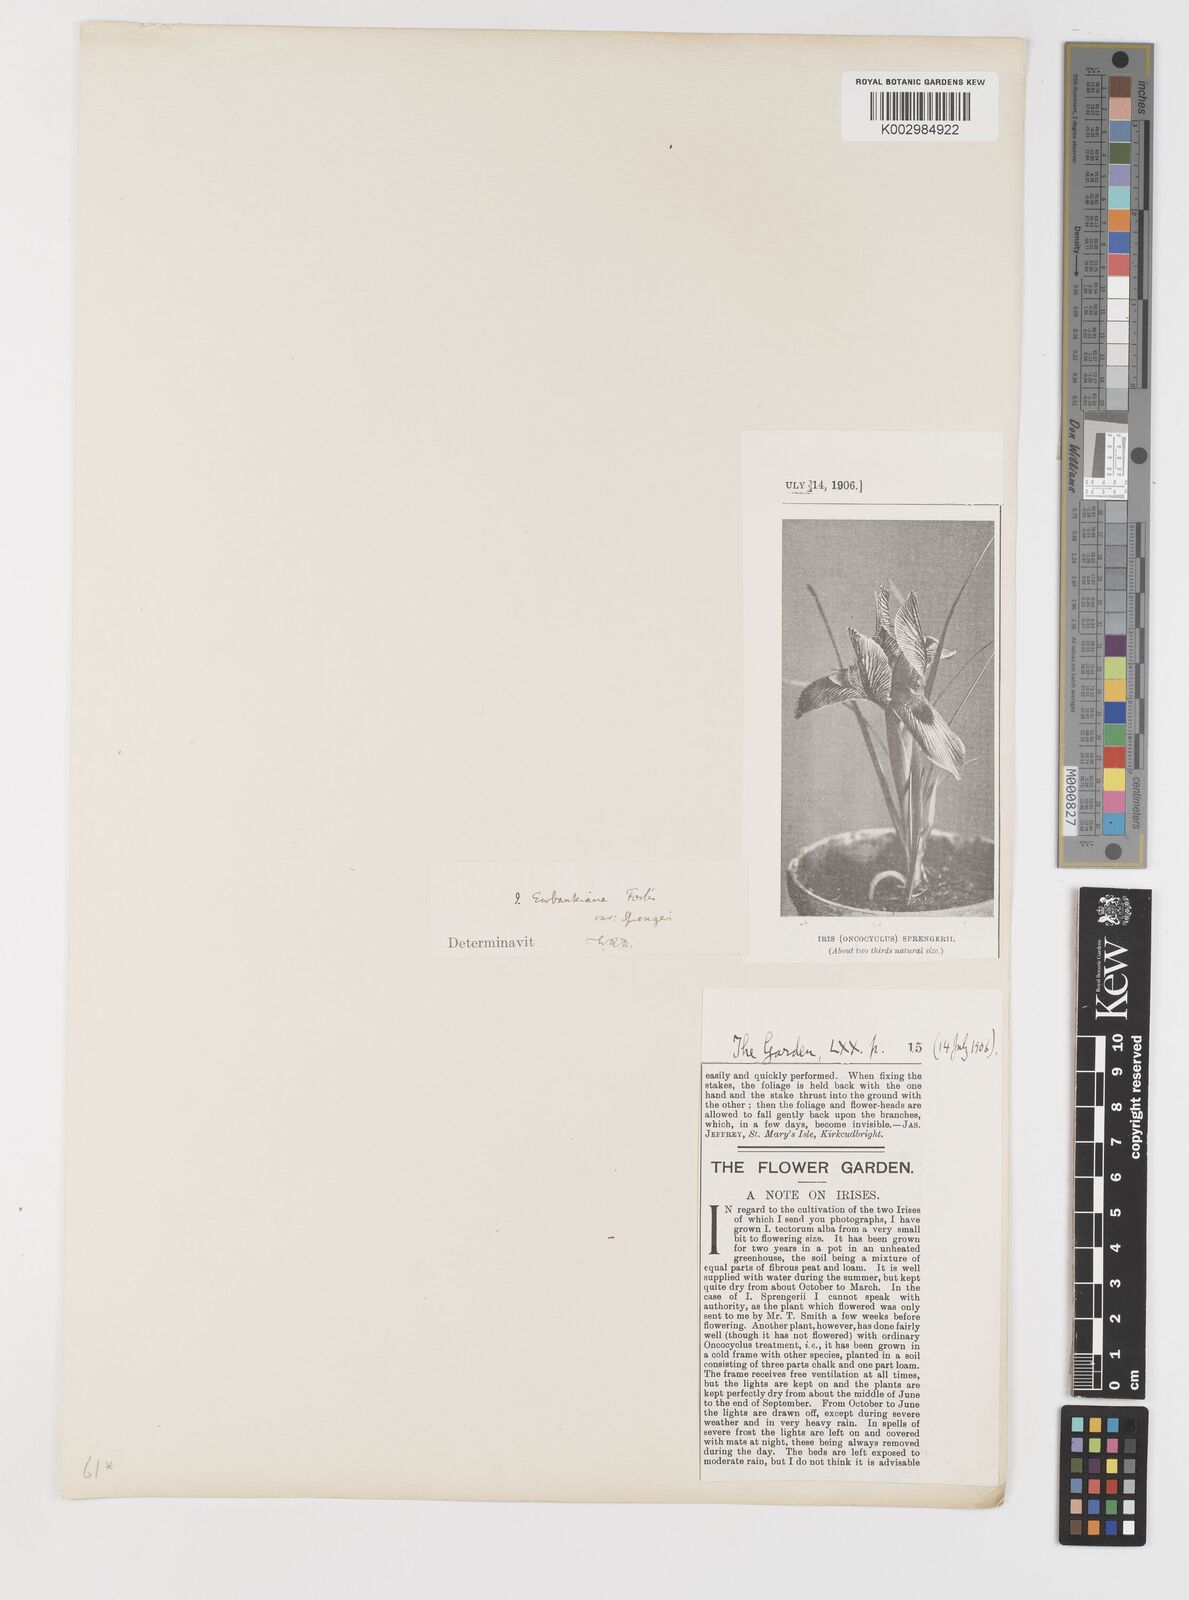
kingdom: Plantae
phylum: Tracheophyta
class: Liliopsida
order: Asparagales
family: Iridaceae
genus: Iris
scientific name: Iris sprengeri
